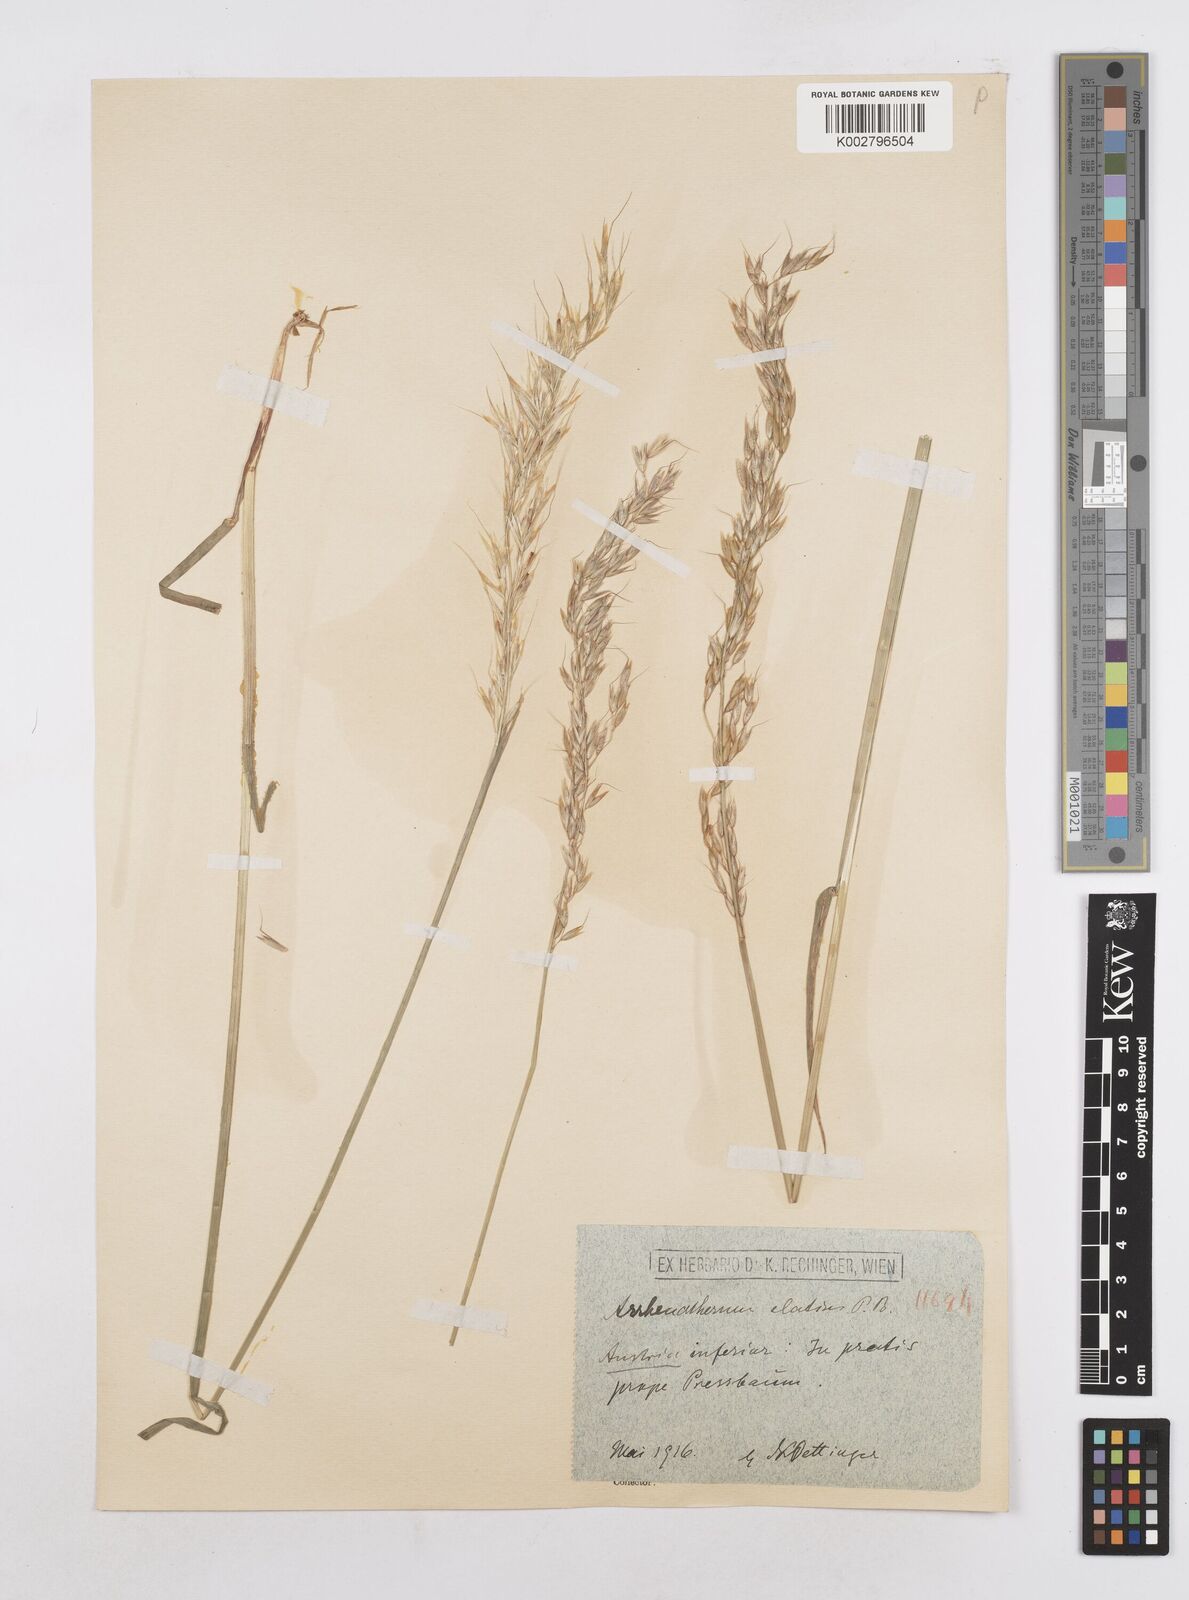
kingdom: Plantae
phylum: Tracheophyta
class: Liliopsida
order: Poales
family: Poaceae
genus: Arrhenatherum
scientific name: Arrhenatherum elatius
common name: Tall oatgrass
